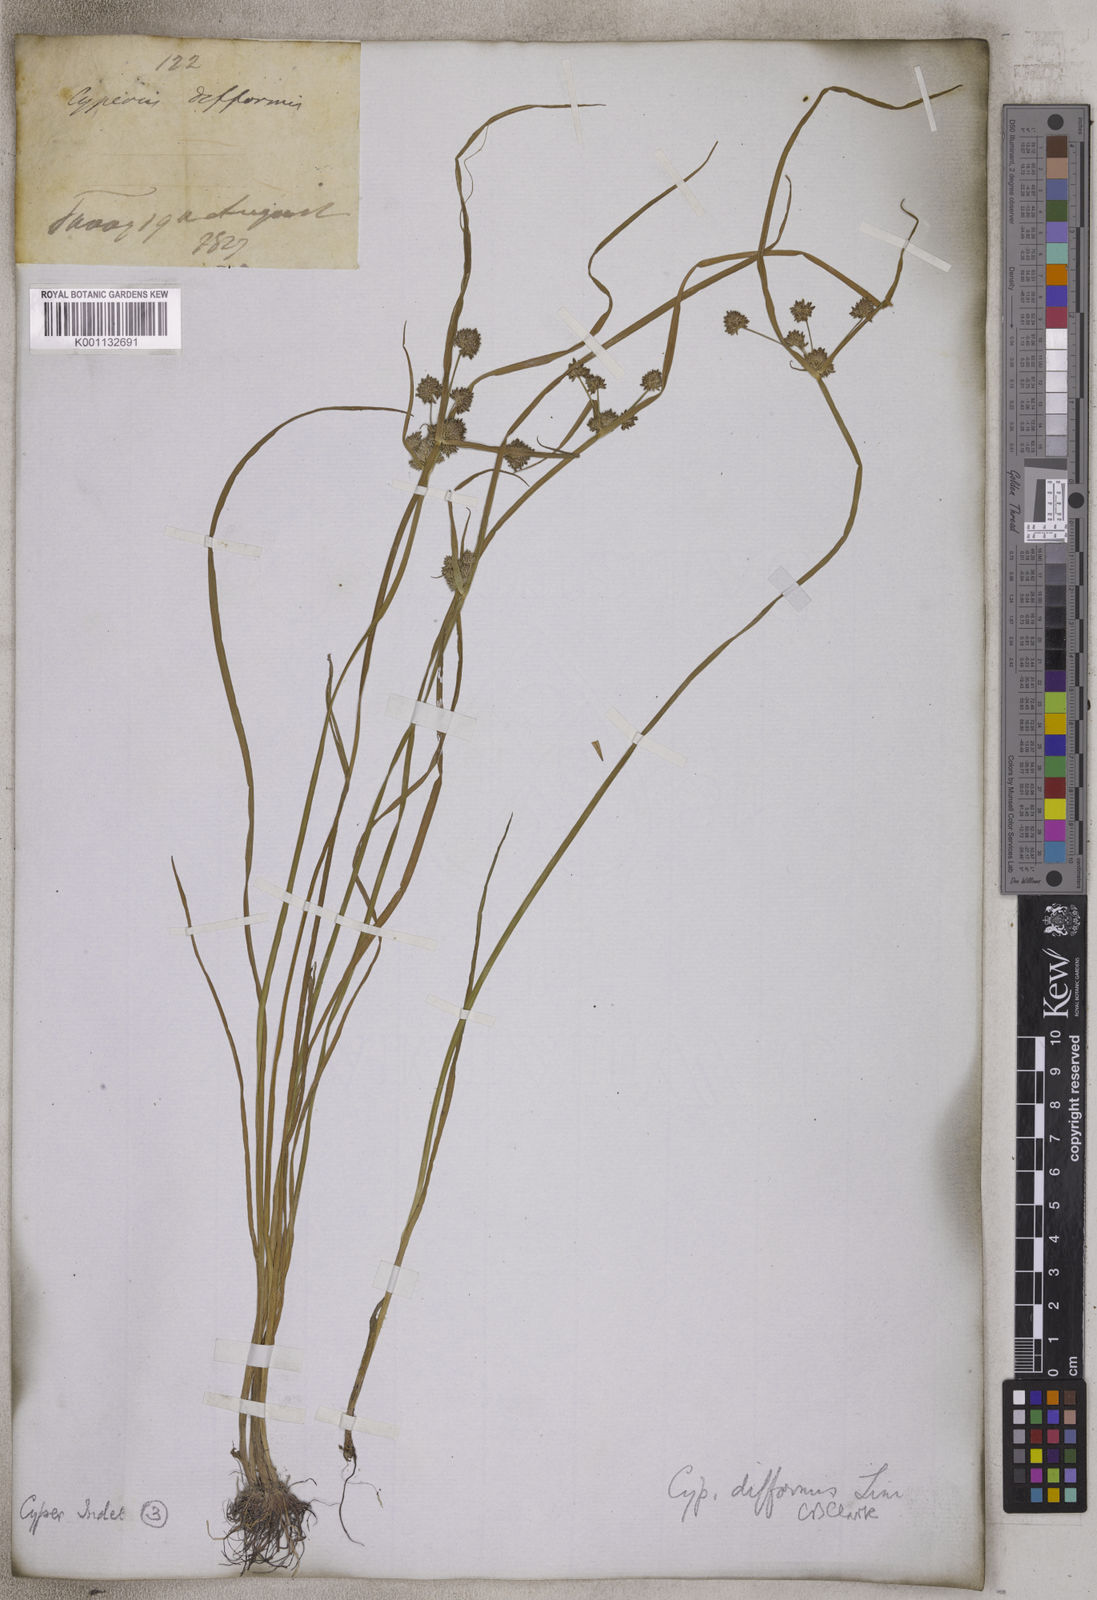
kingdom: Plantae
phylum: Tracheophyta
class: Liliopsida
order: Poales
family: Cyperaceae
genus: Cyperus
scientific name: Cyperus difformis
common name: Variable flatsedge
